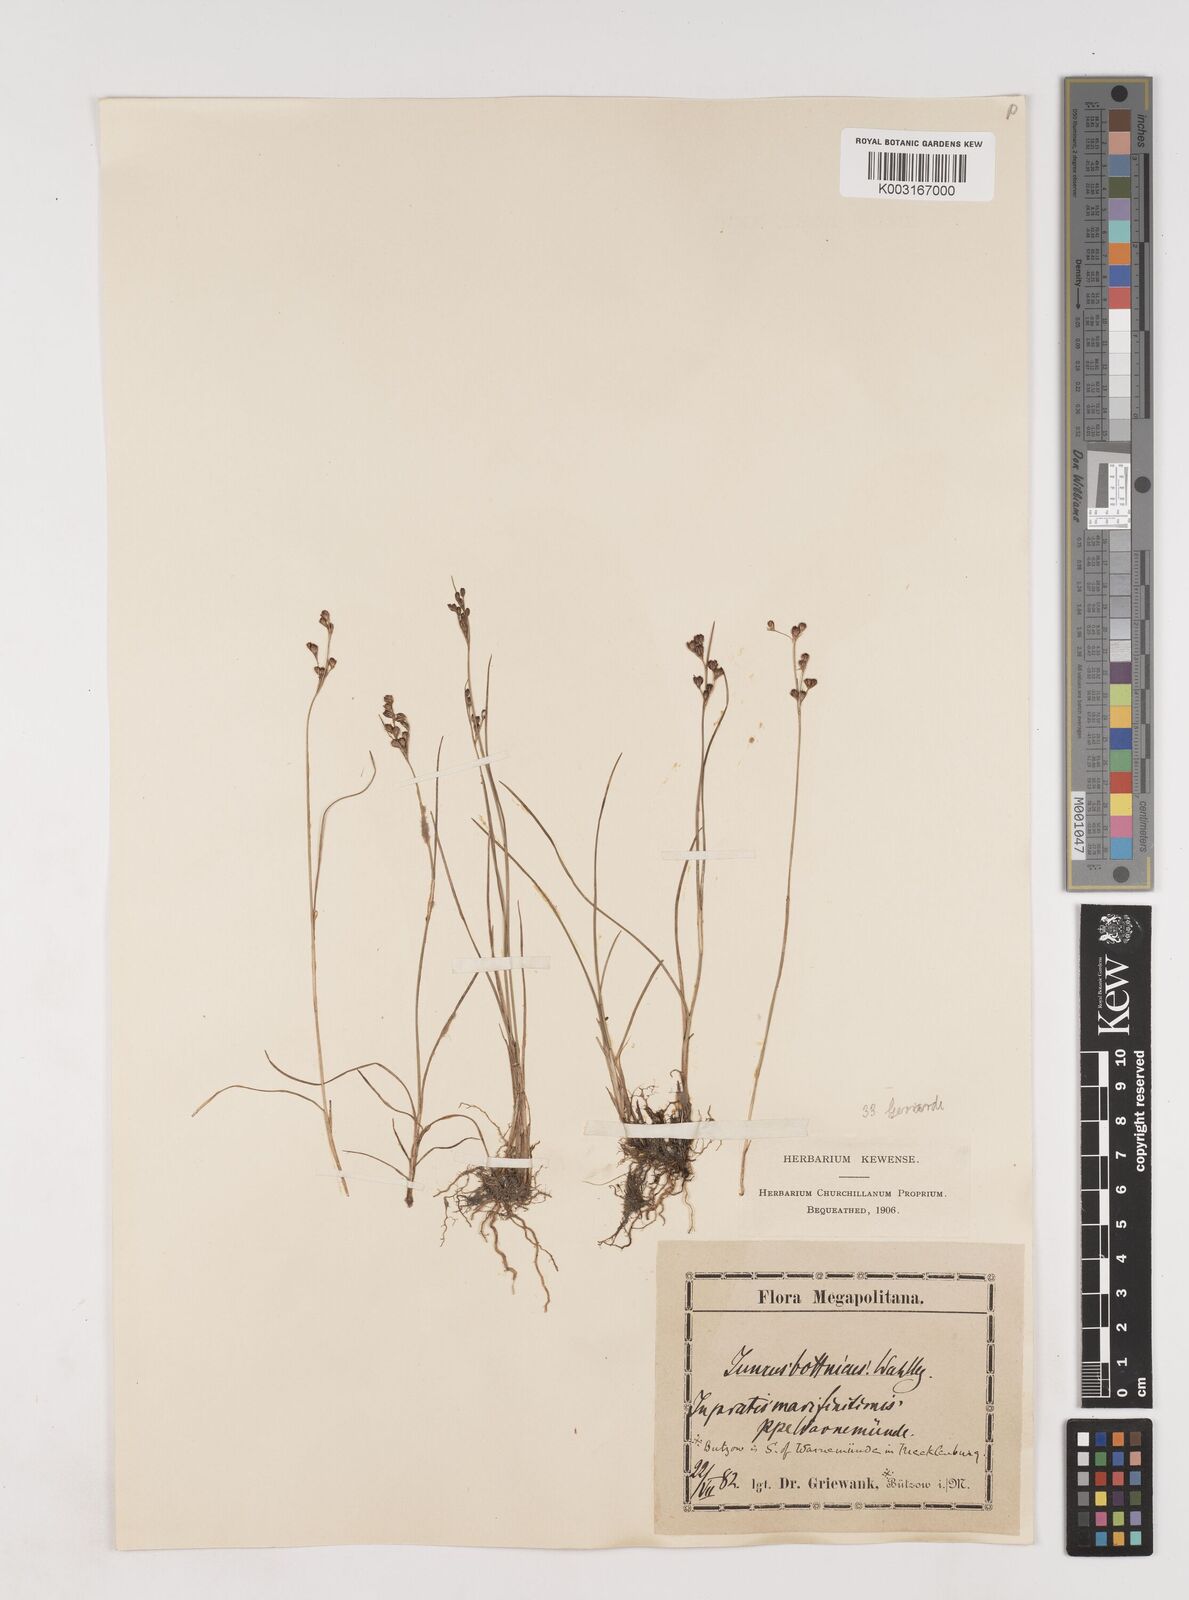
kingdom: Plantae
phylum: Tracheophyta
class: Liliopsida
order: Poales
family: Juncaceae
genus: Juncus
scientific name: Juncus gerardi
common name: Saltmarsh rush
